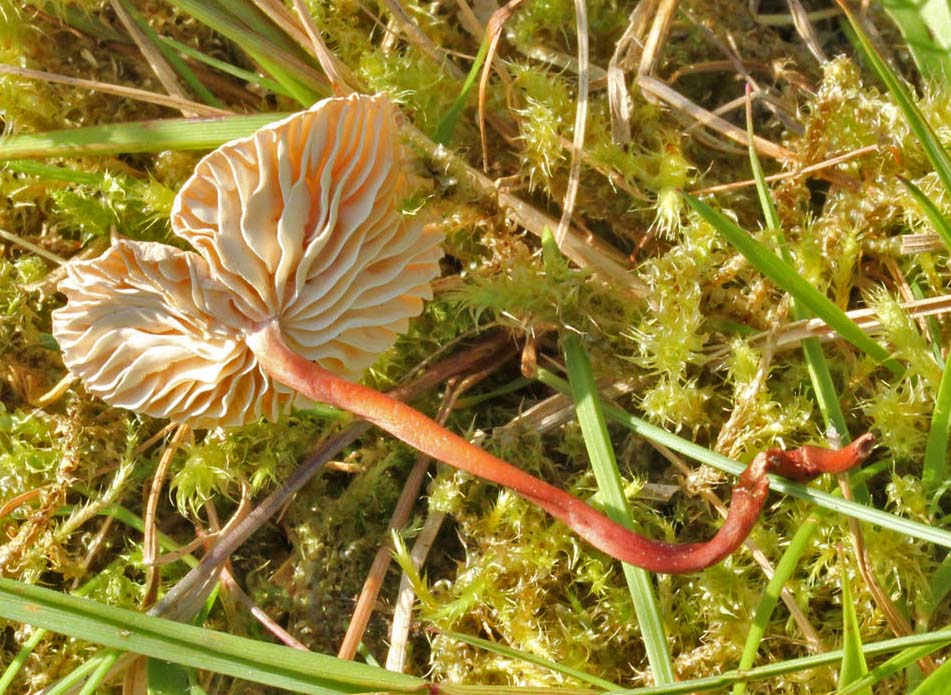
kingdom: Fungi
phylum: Basidiomycota
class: Agaricomycetes
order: Agaricales
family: Omphalotaceae
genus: Mycetinis
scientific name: Mycetinis scorodonius
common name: lille løghat
